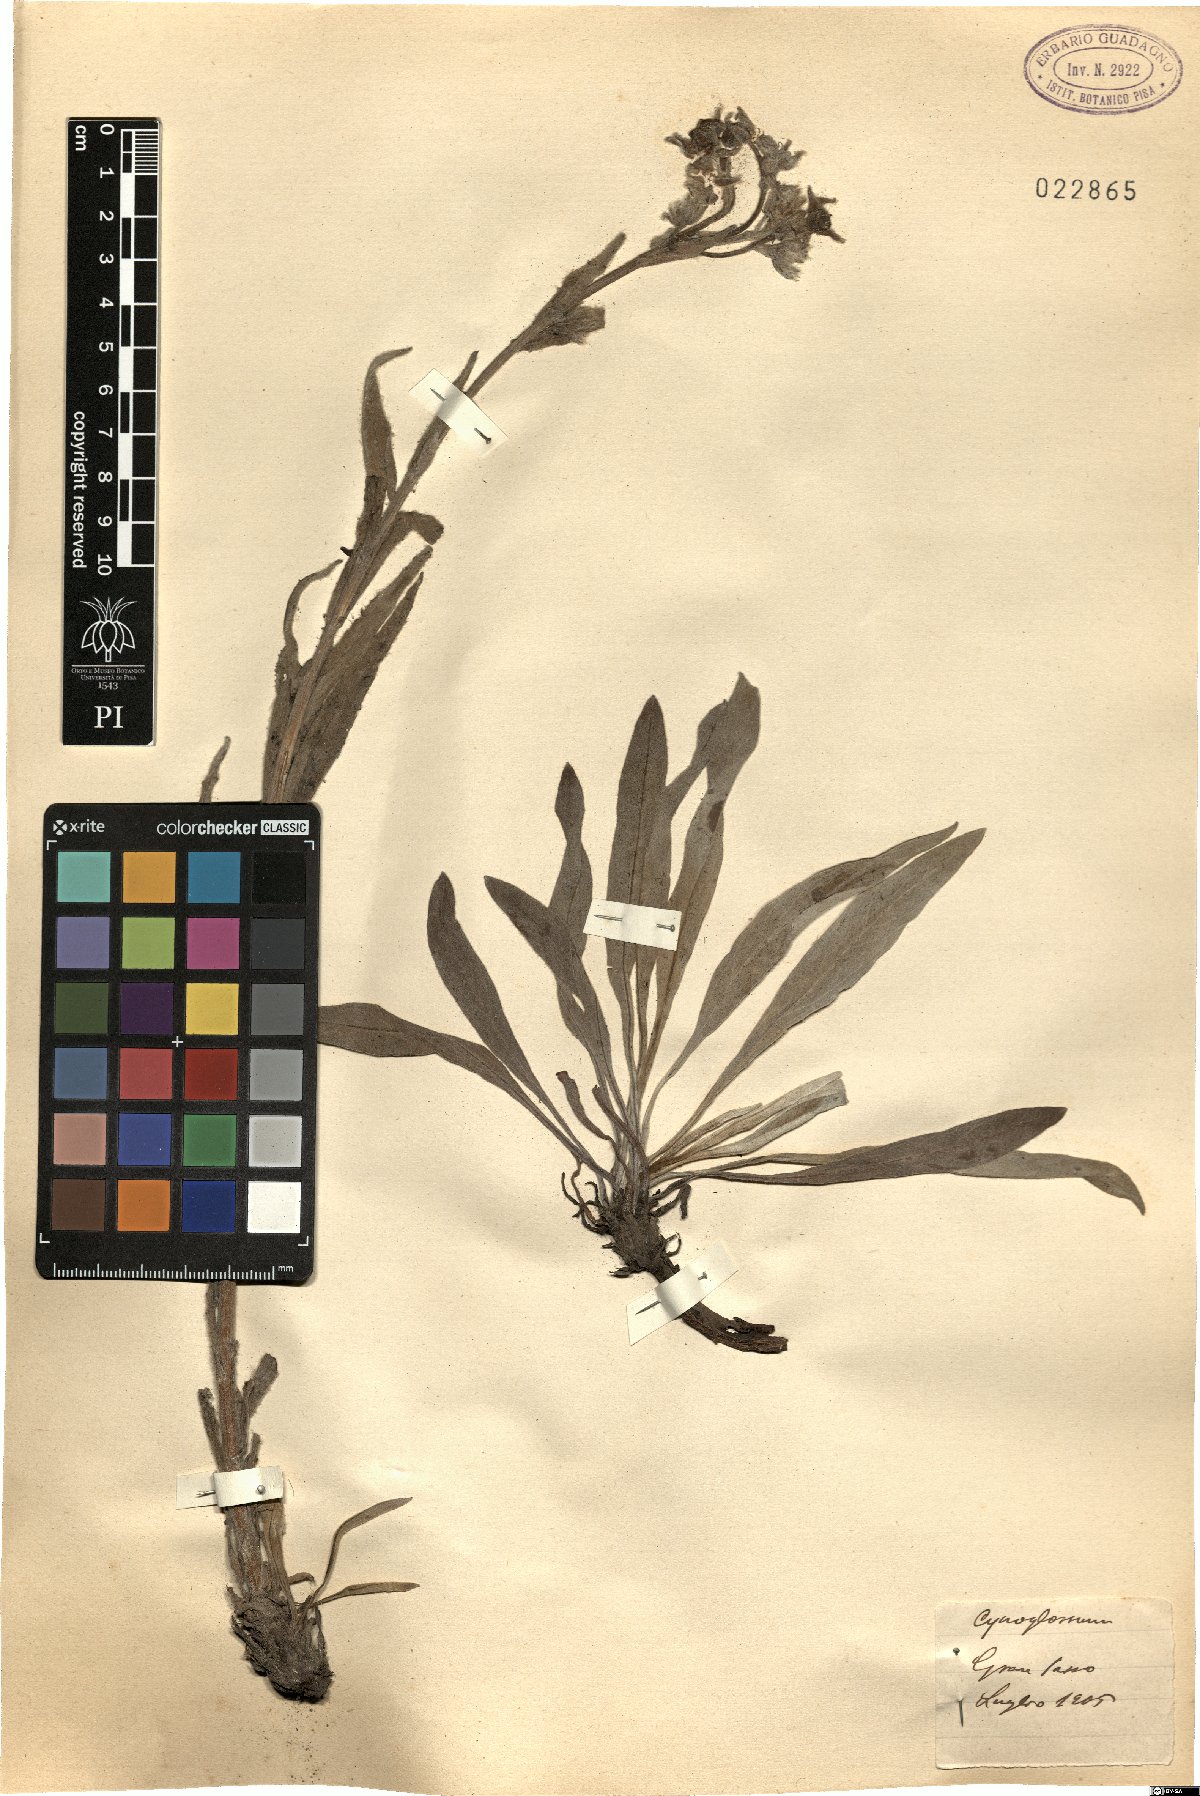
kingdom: Plantae
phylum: Tracheophyta
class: Magnoliopsida
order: Boraginales
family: Boraginaceae
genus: Cynoglossum
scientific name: Cynoglossum
